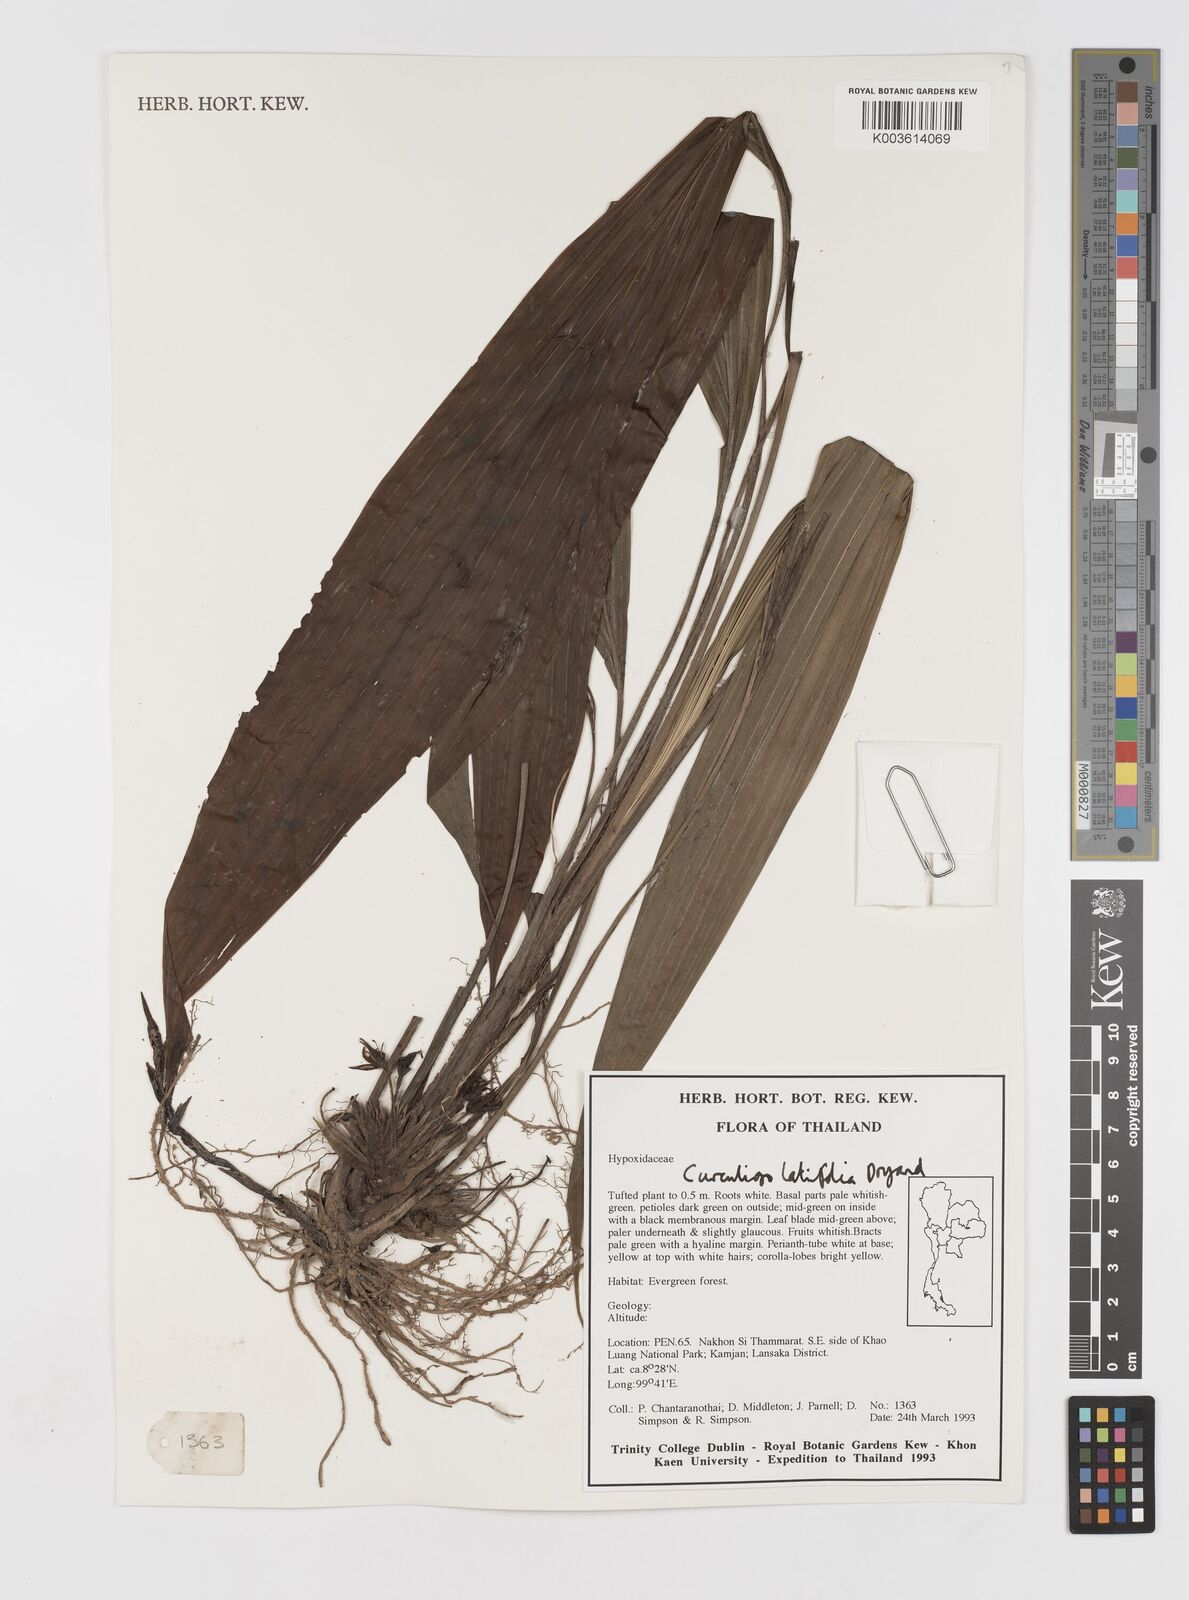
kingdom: Plantae
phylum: Tracheophyta
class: Liliopsida
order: Asparagales
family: Hypoxidaceae
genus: Curculigo
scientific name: Curculigo latifolia
